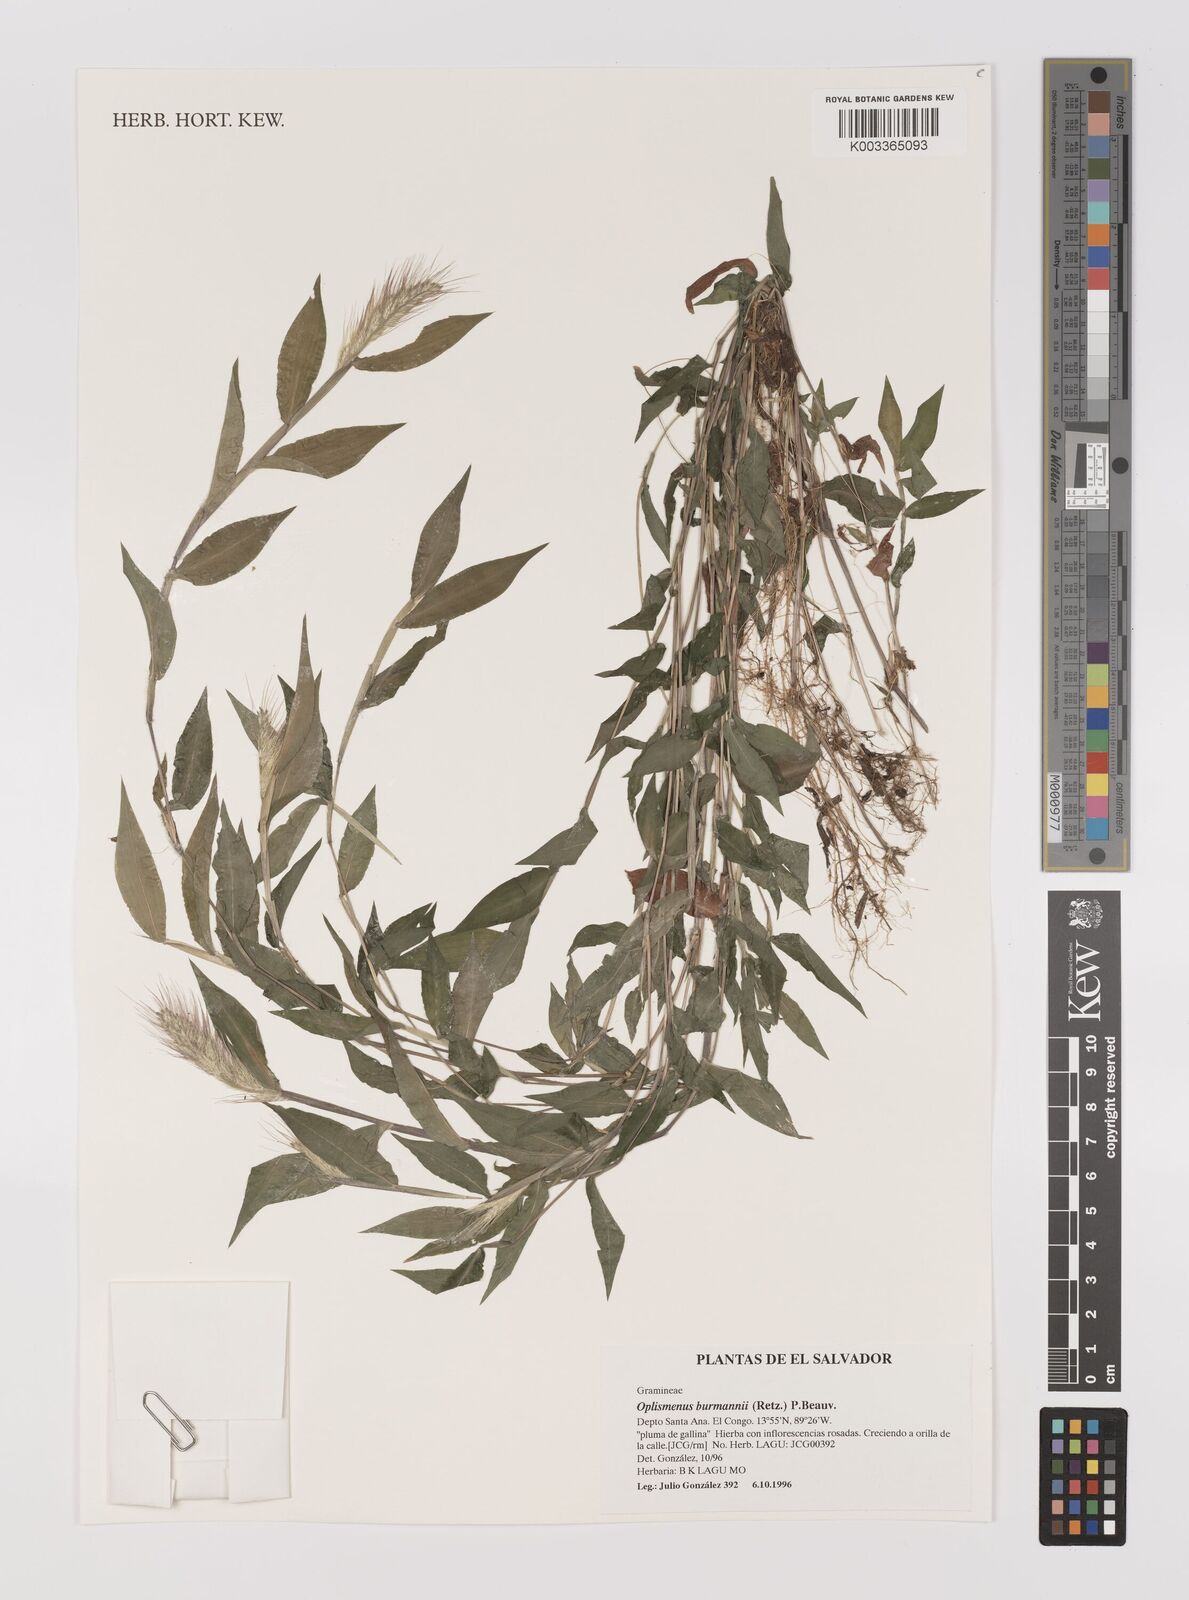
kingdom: Plantae
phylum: Tracheophyta
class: Liliopsida
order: Poales
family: Poaceae
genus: Oplismenus
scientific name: Oplismenus burmanni
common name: Burmann's basketgrass
